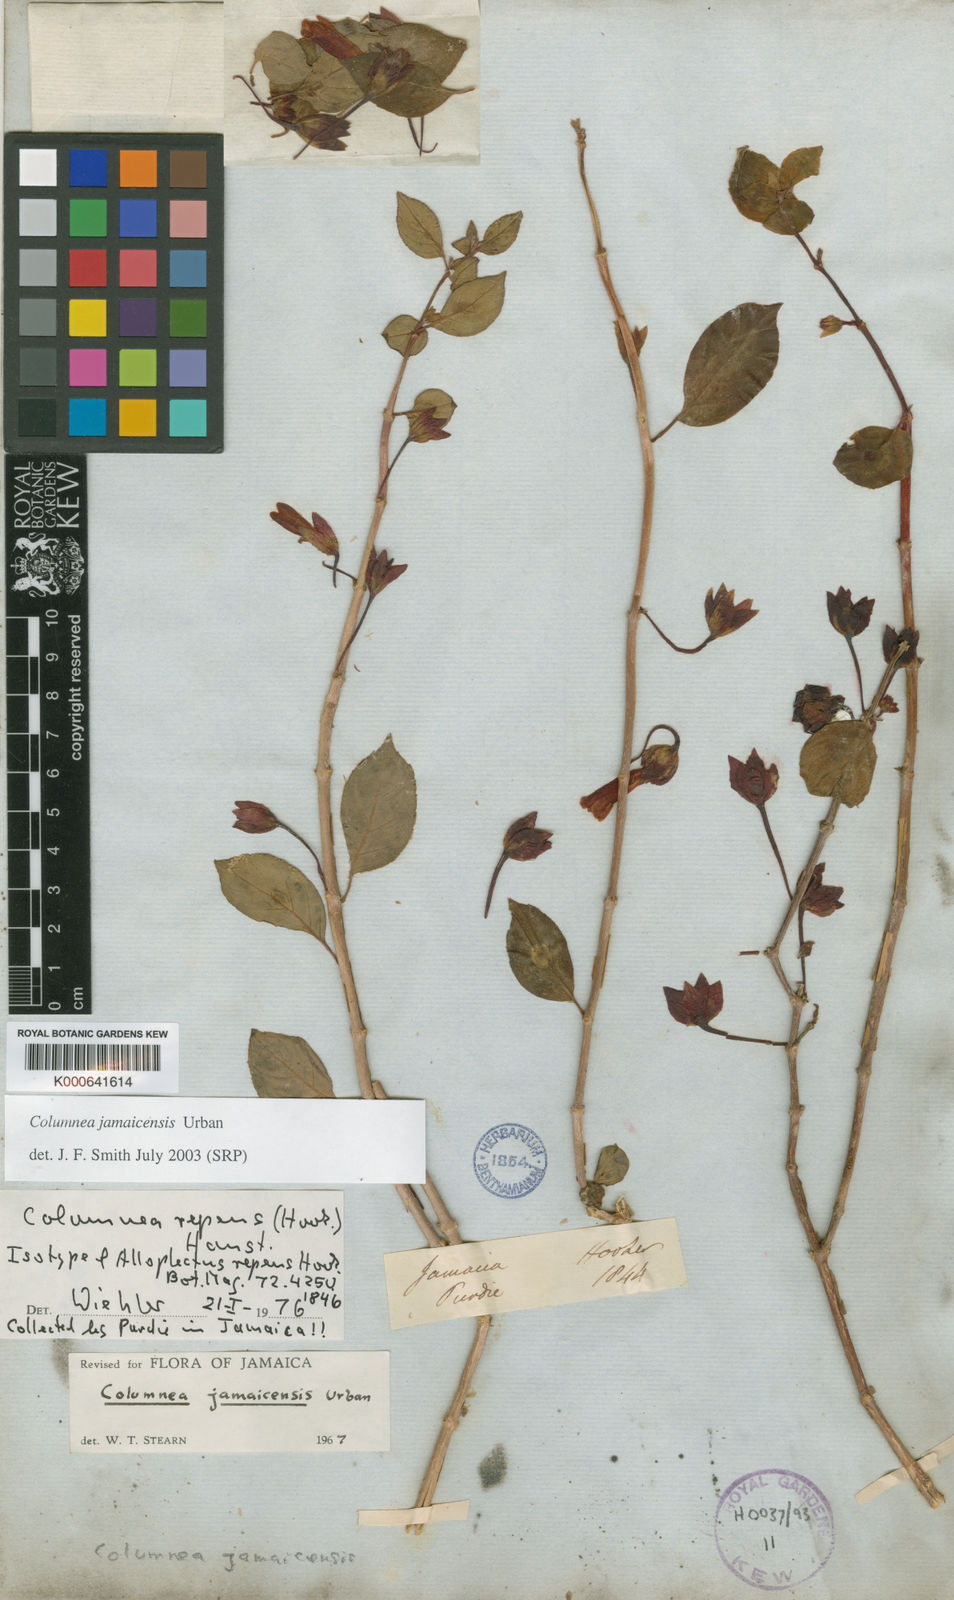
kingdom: Plantae
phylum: Tracheophyta
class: Magnoliopsida
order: Lamiales
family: Gesneriaceae
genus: Columnea
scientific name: Columnea repens
